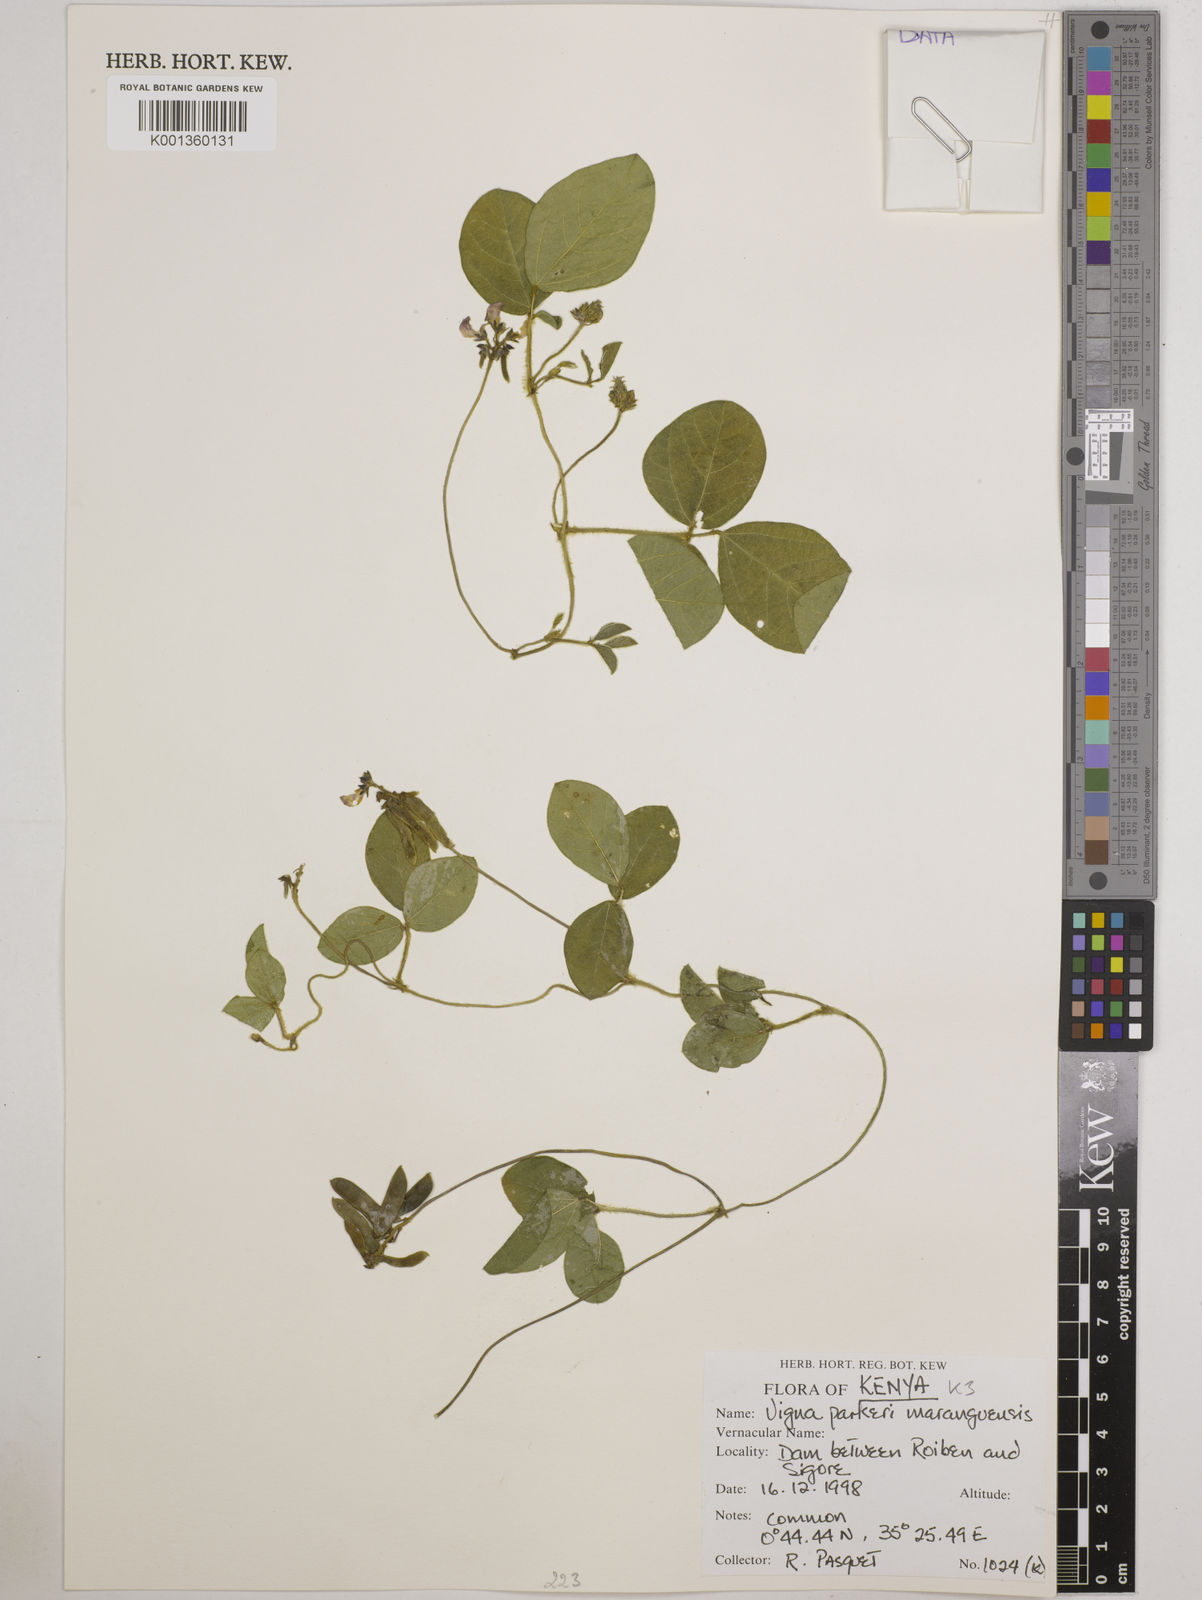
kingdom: Plantae
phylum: Tracheophyta
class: Magnoliopsida
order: Fabales
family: Fabaceae
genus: Vigna
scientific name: Vigna
